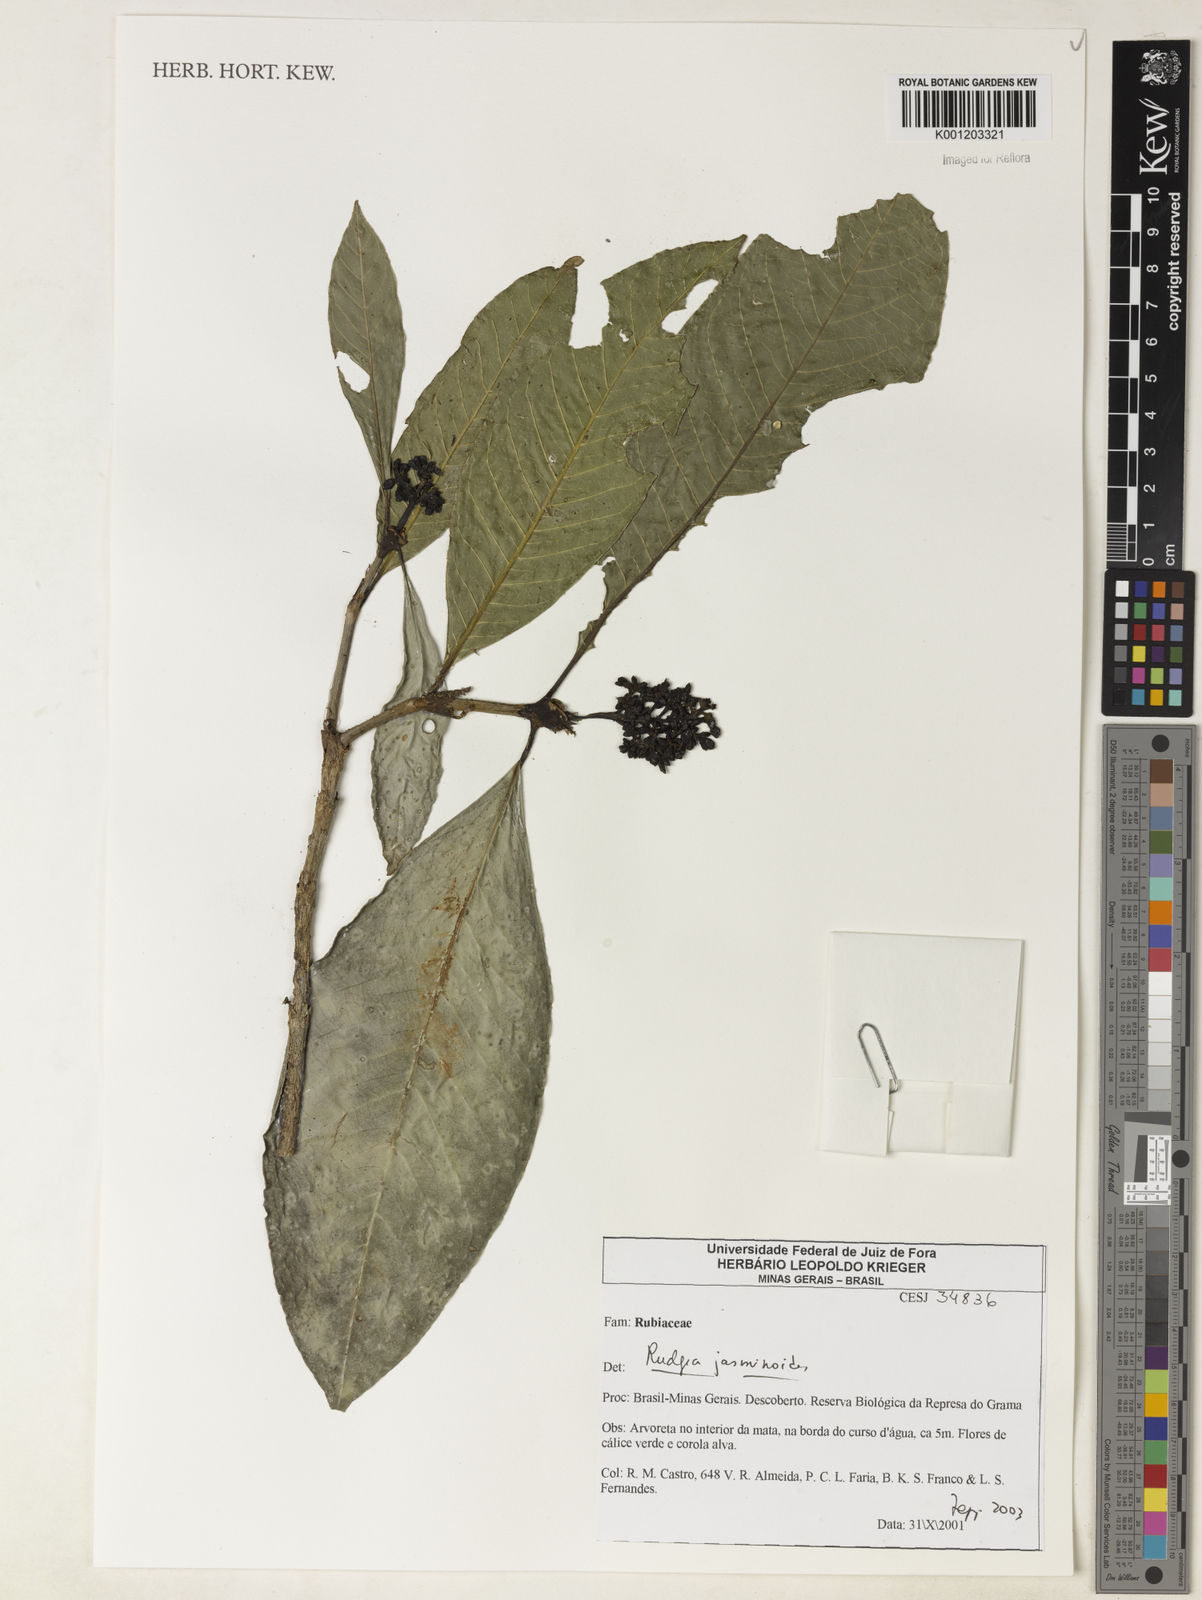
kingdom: Plantae
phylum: Tracheophyta
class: Magnoliopsida
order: Gentianales
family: Rubiaceae
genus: Rudgea
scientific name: Rudgea
